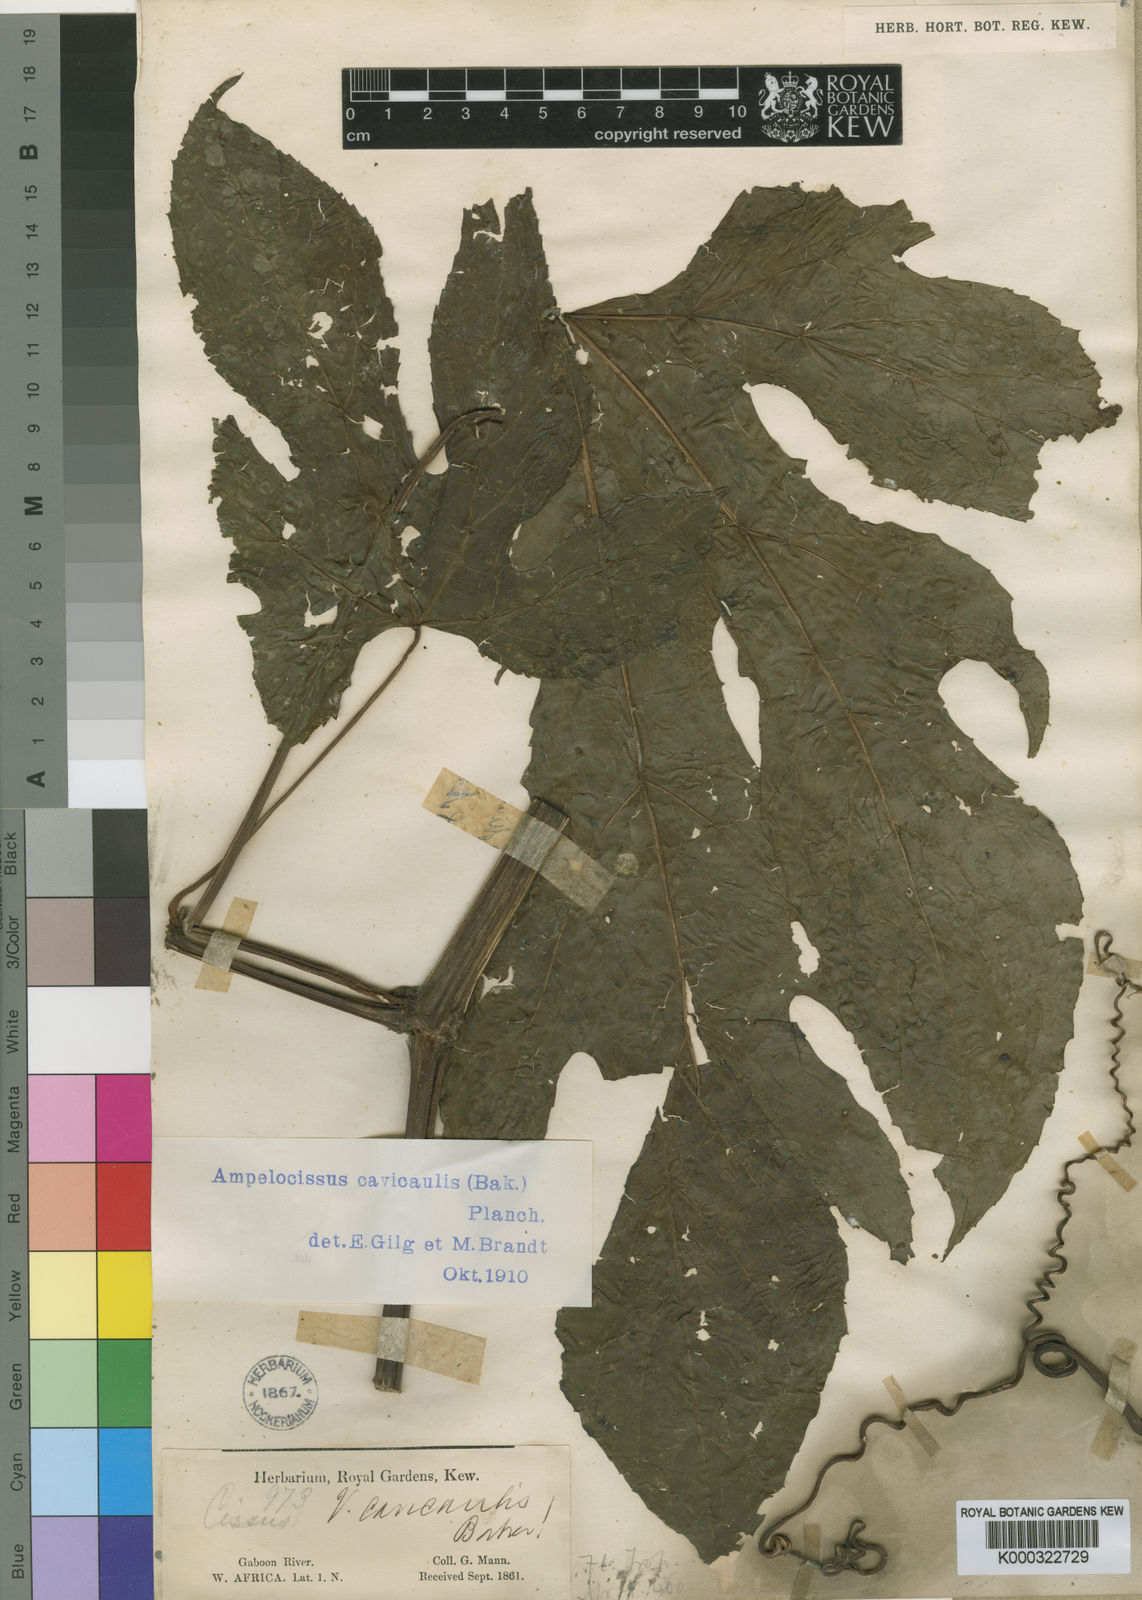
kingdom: Plantae
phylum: Tracheophyta
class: Magnoliopsida
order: Vitales
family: Vitaceae
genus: Ampelocissus
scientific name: Ampelocissus abyssinica
